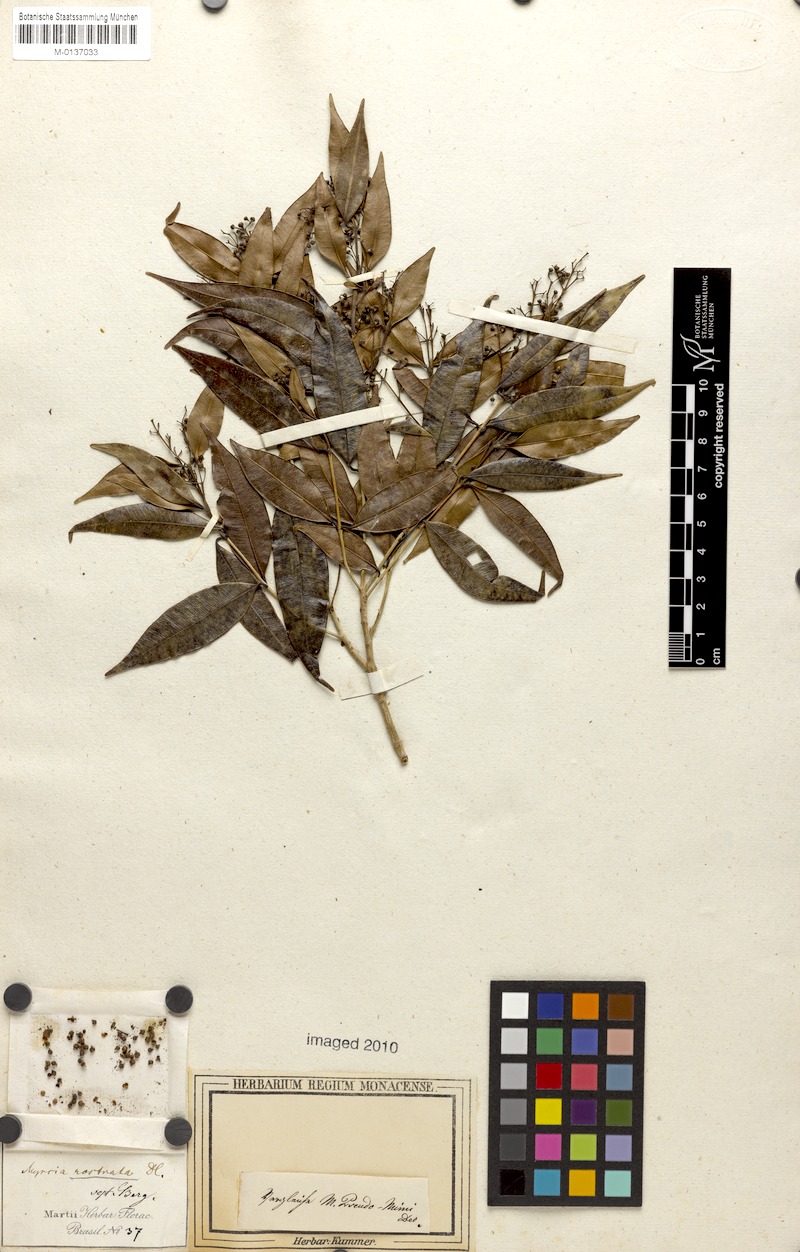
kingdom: Plantae
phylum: Tracheophyta
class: Magnoliopsida
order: Myrtales
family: Myrtaceae
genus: Myrcia
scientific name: Myrcia splendens
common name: Surinam cherry
